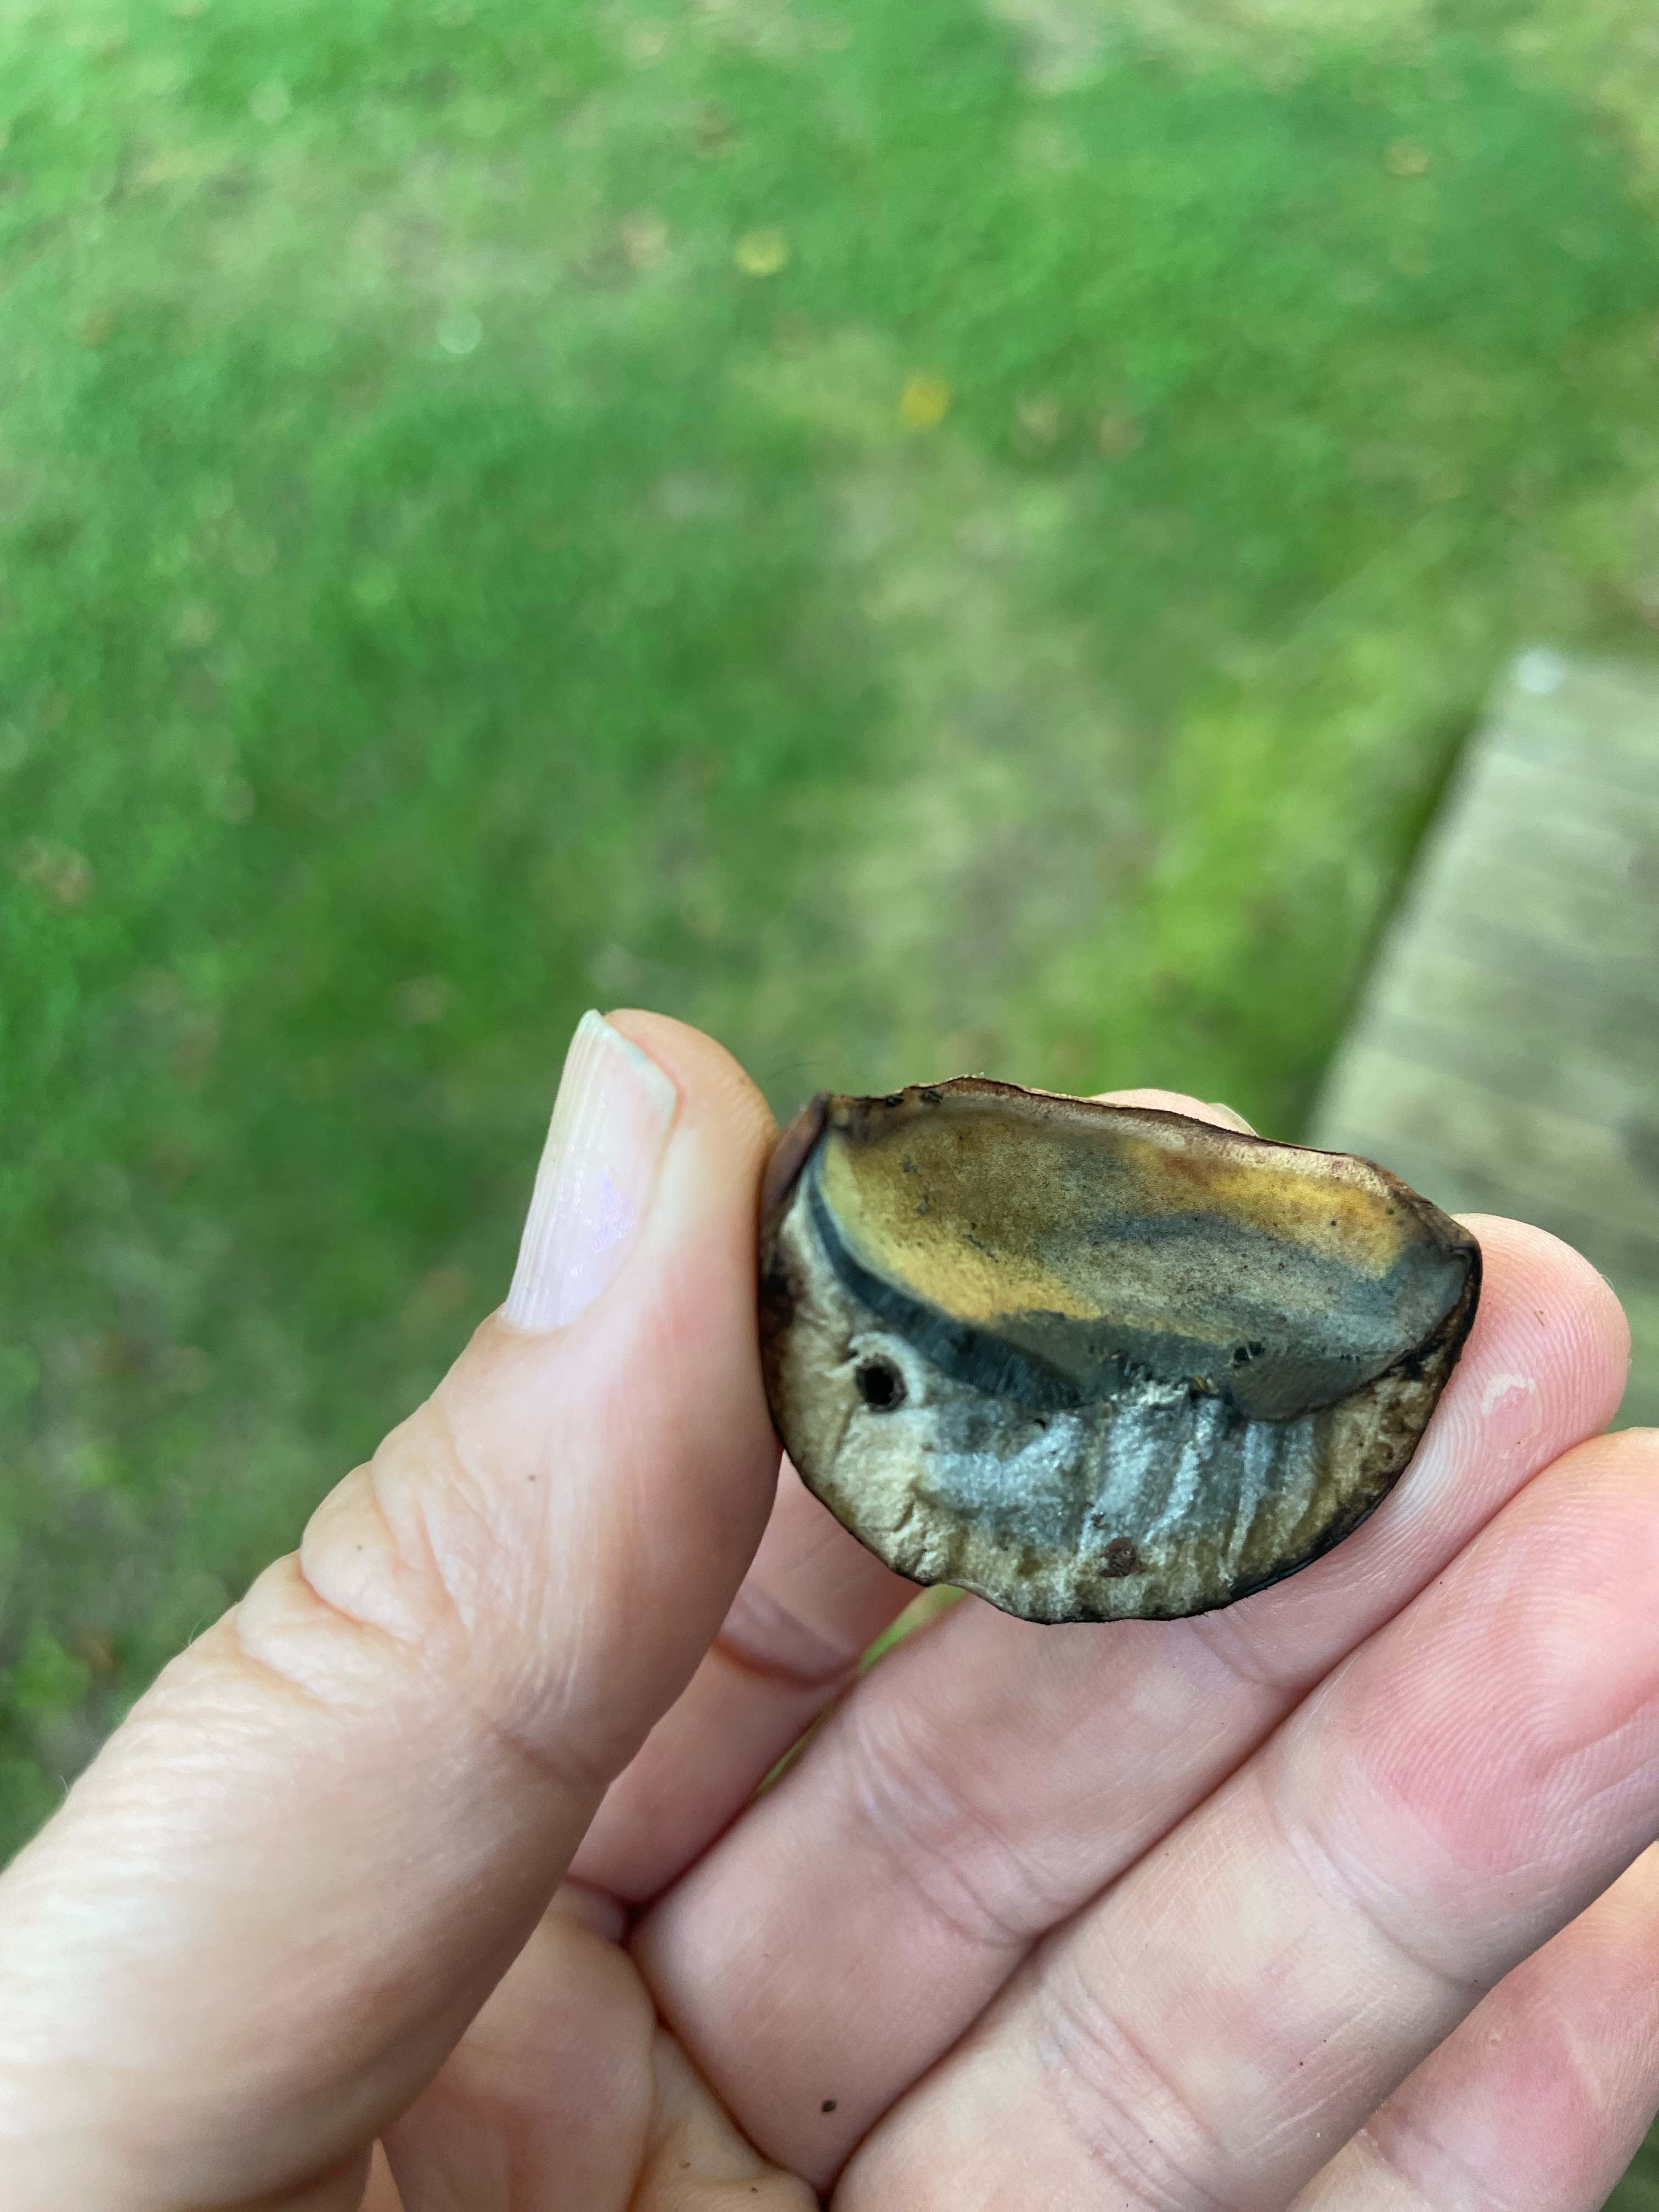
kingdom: Fungi
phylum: Basidiomycota
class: Agaricomycetes
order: Boletales
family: Boletaceae
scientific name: Boletaceae
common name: rørhatfamilien
